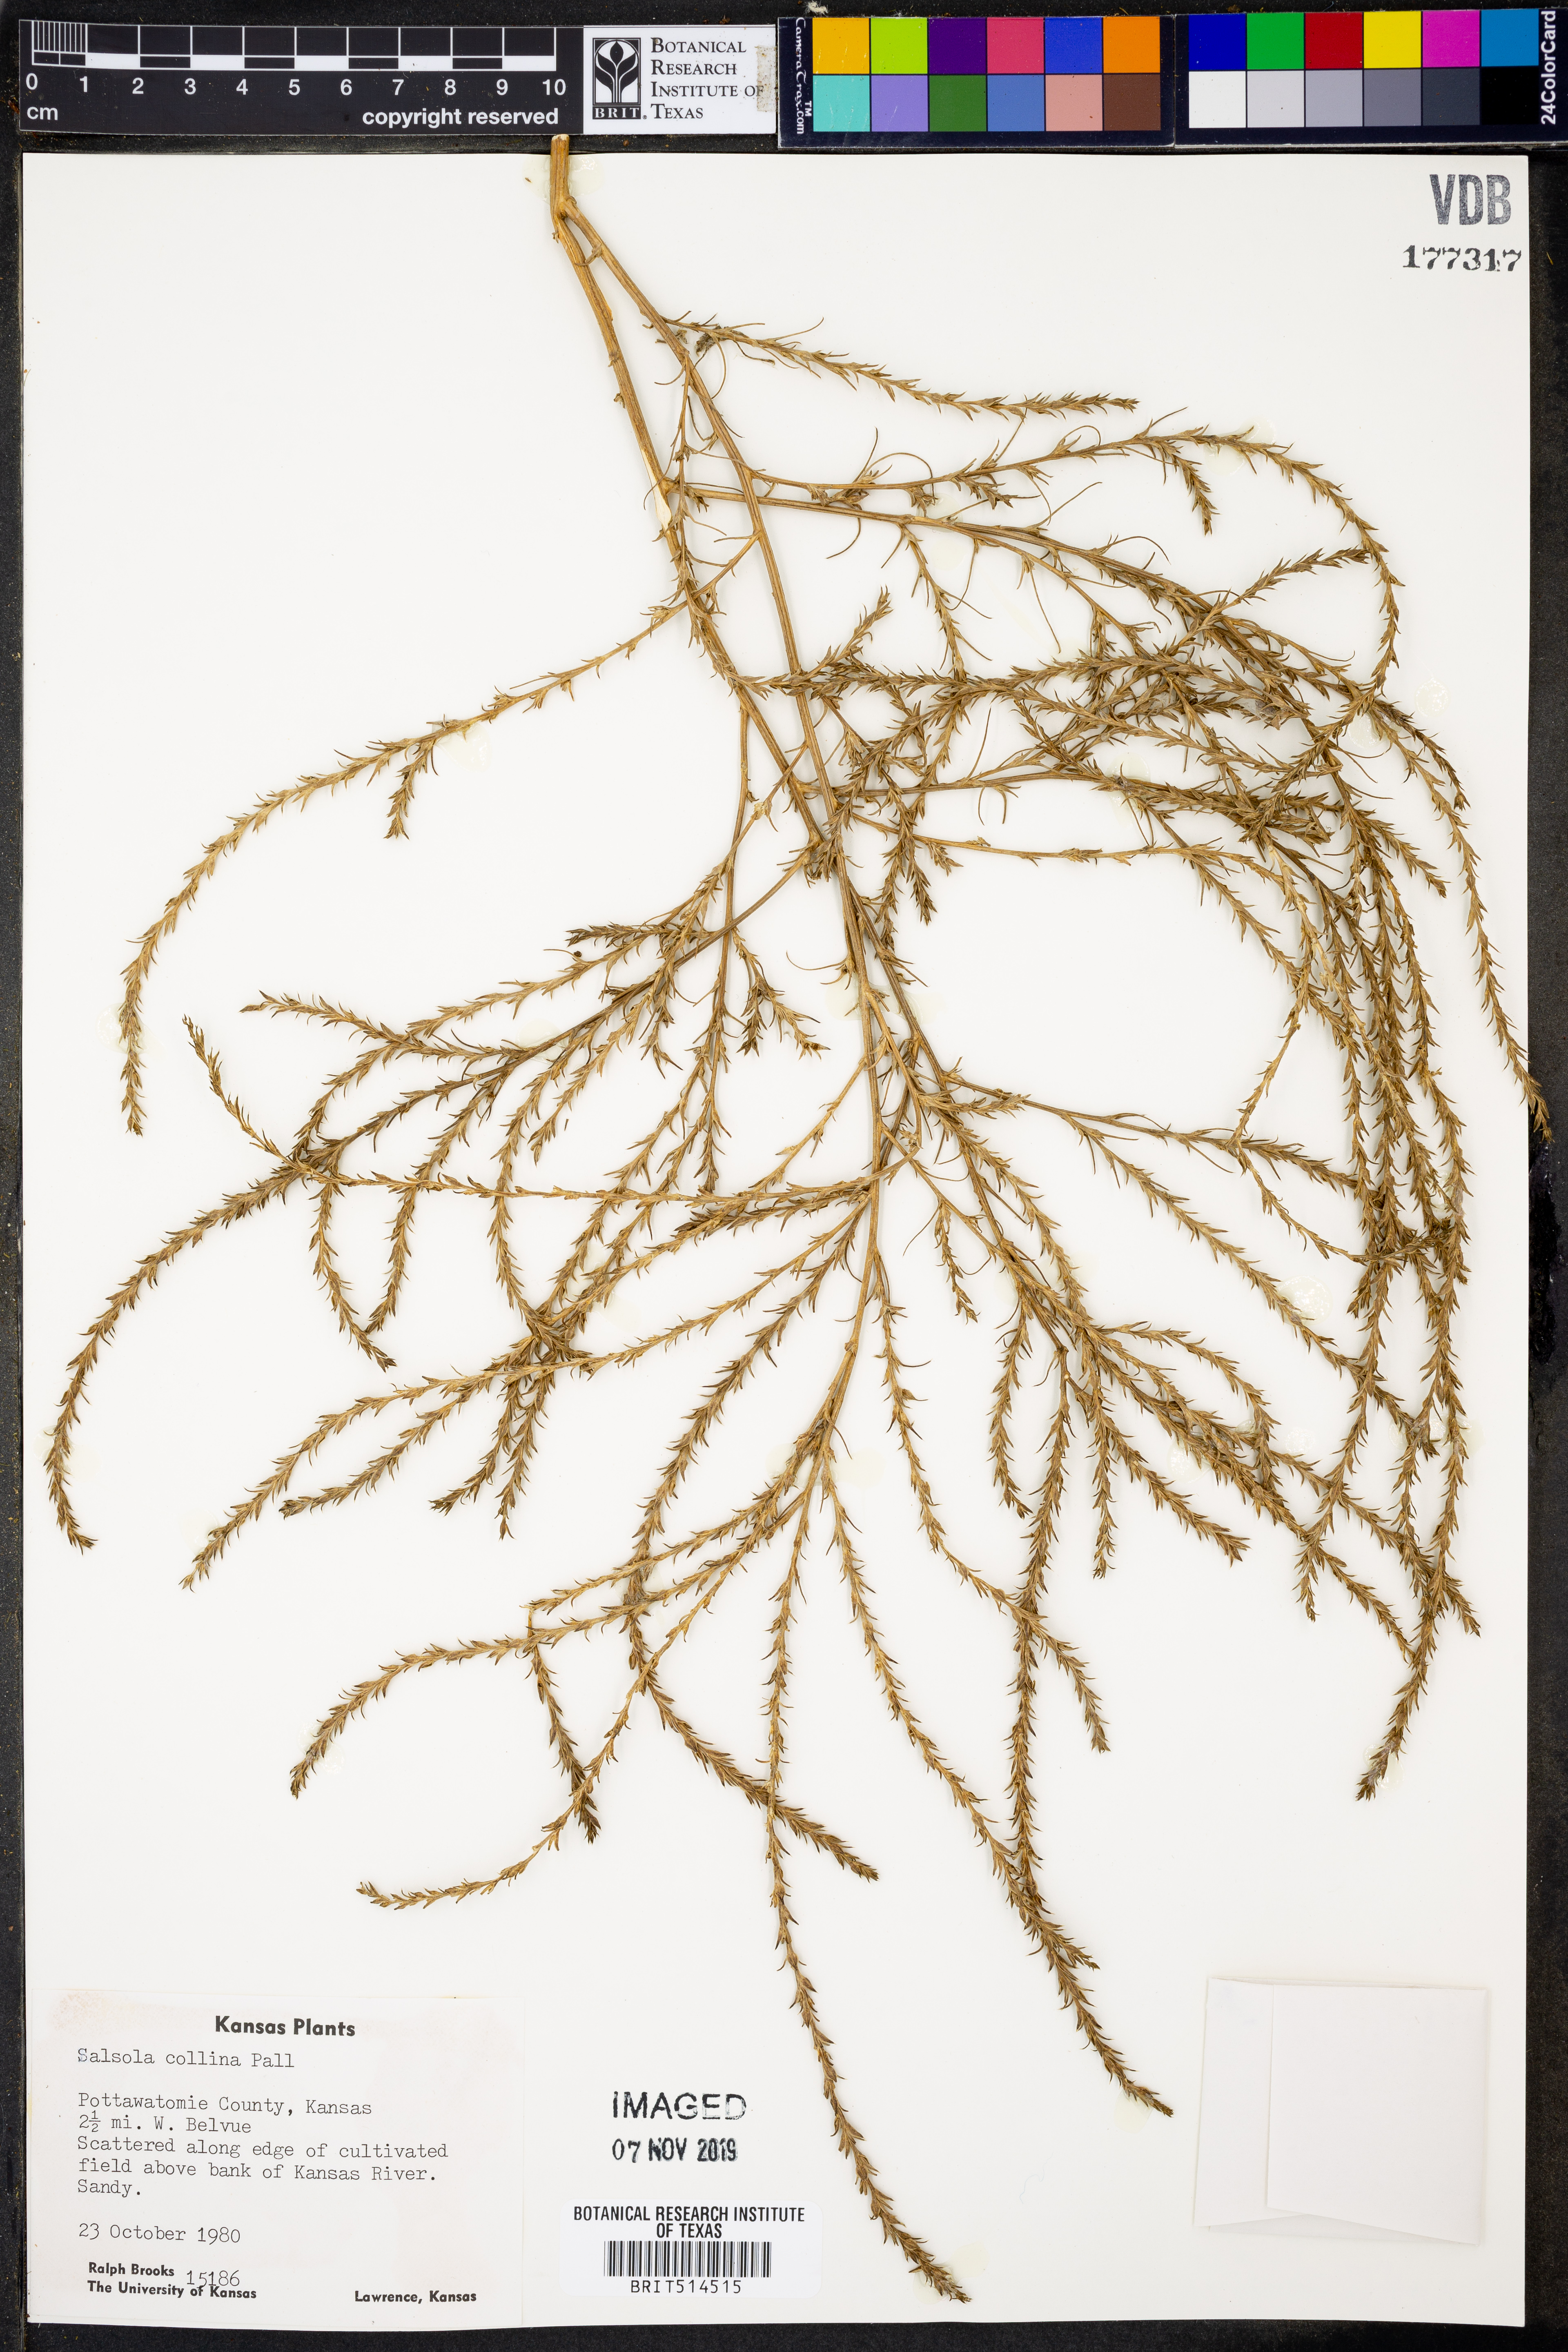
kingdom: Plantae
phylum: Tracheophyta
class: Magnoliopsida
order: Caryophyllales
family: Amaranthaceae
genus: Salsola
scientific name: Salsola collina
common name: Tumbleweed
